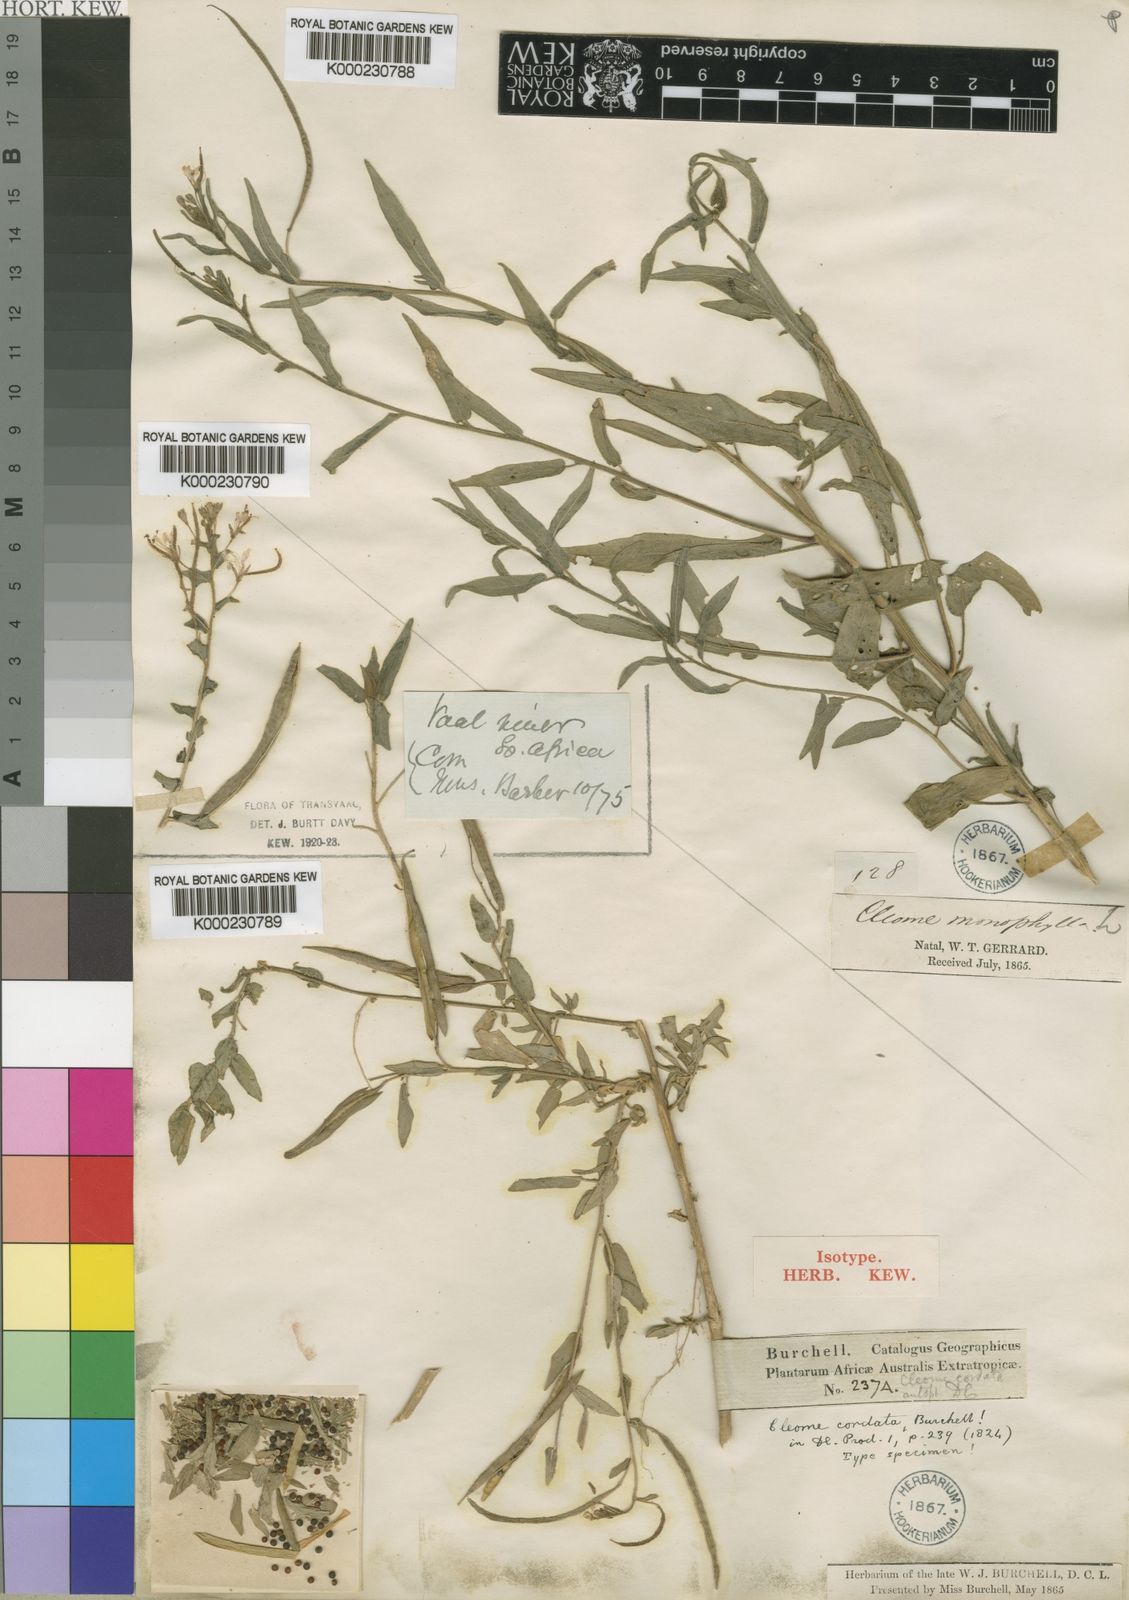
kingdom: Plantae
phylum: Tracheophyta
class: Magnoliopsida
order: Brassicales
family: Cleomaceae
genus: Sieruela
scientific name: Sieruela monophylla
